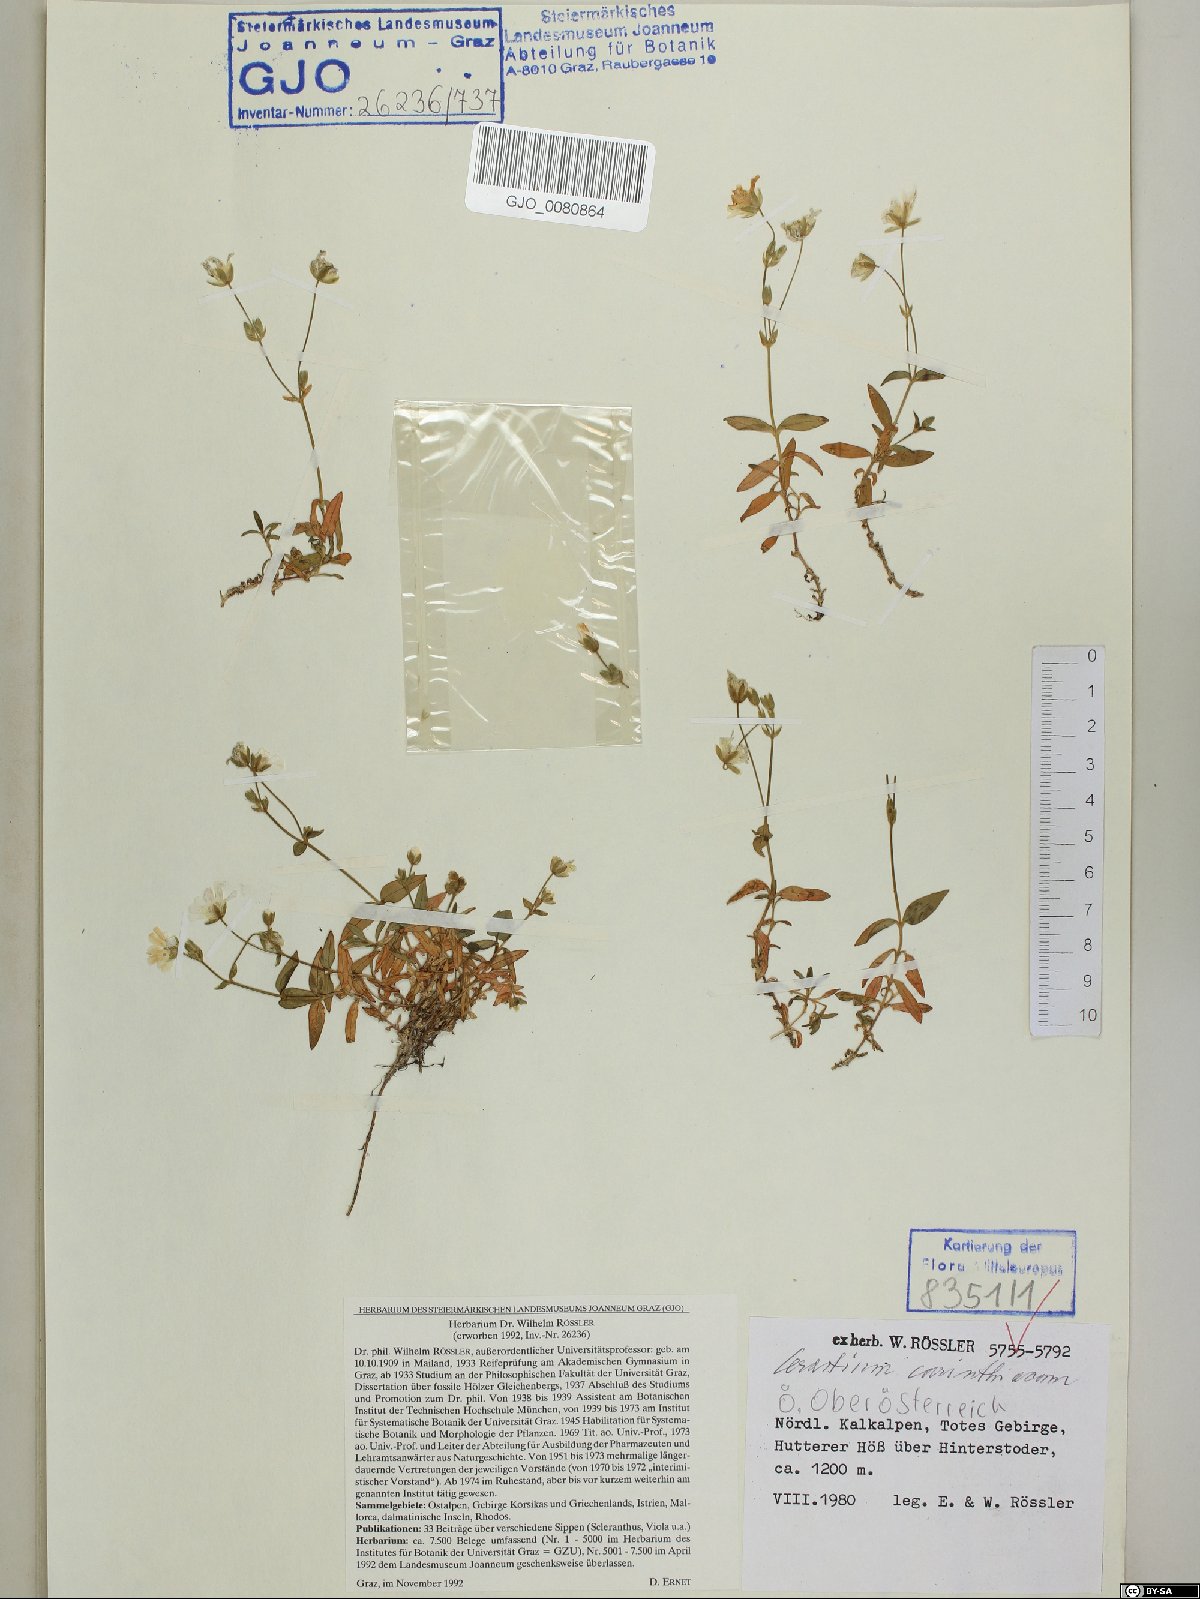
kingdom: Plantae
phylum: Tracheophyta
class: Magnoliopsida
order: Caryophyllales
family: Caryophyllaceae
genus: Cerastium
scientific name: Cerastium carinthiacum
